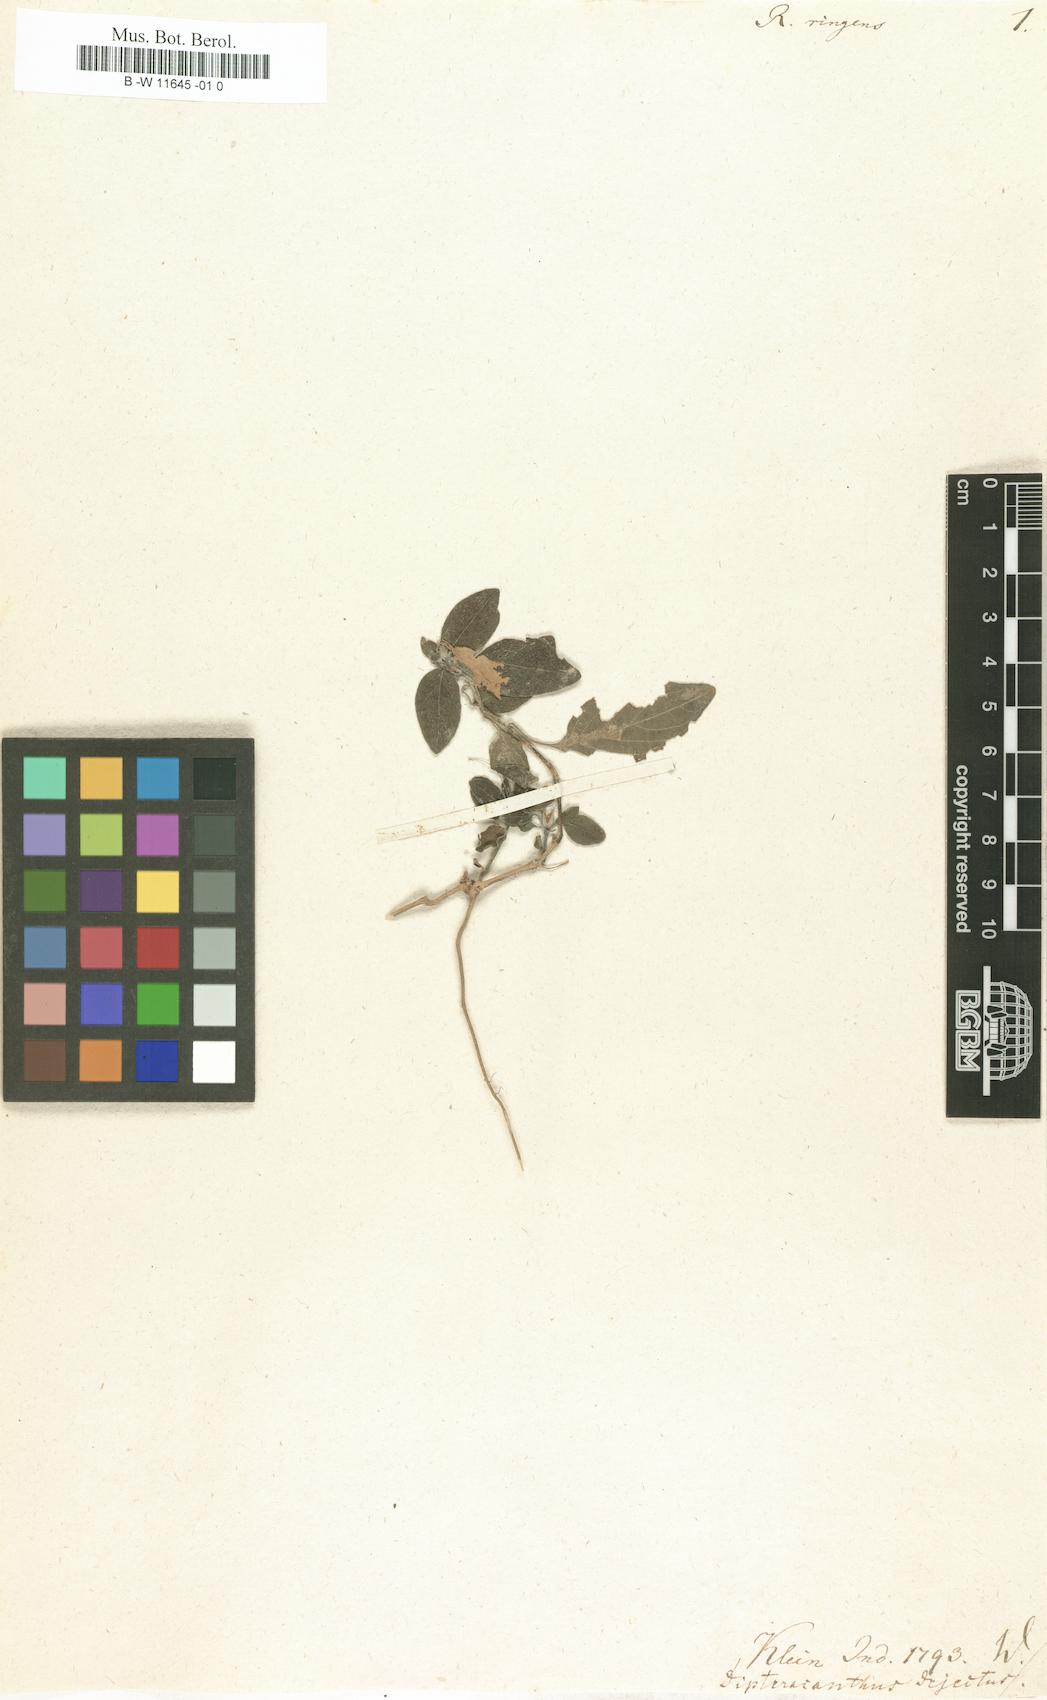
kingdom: Plantae
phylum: Tracheophyta
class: Magnoliopsida
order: Lamiales
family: Acanthaceae
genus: Hygrophila
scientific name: Hygrophila ringens
